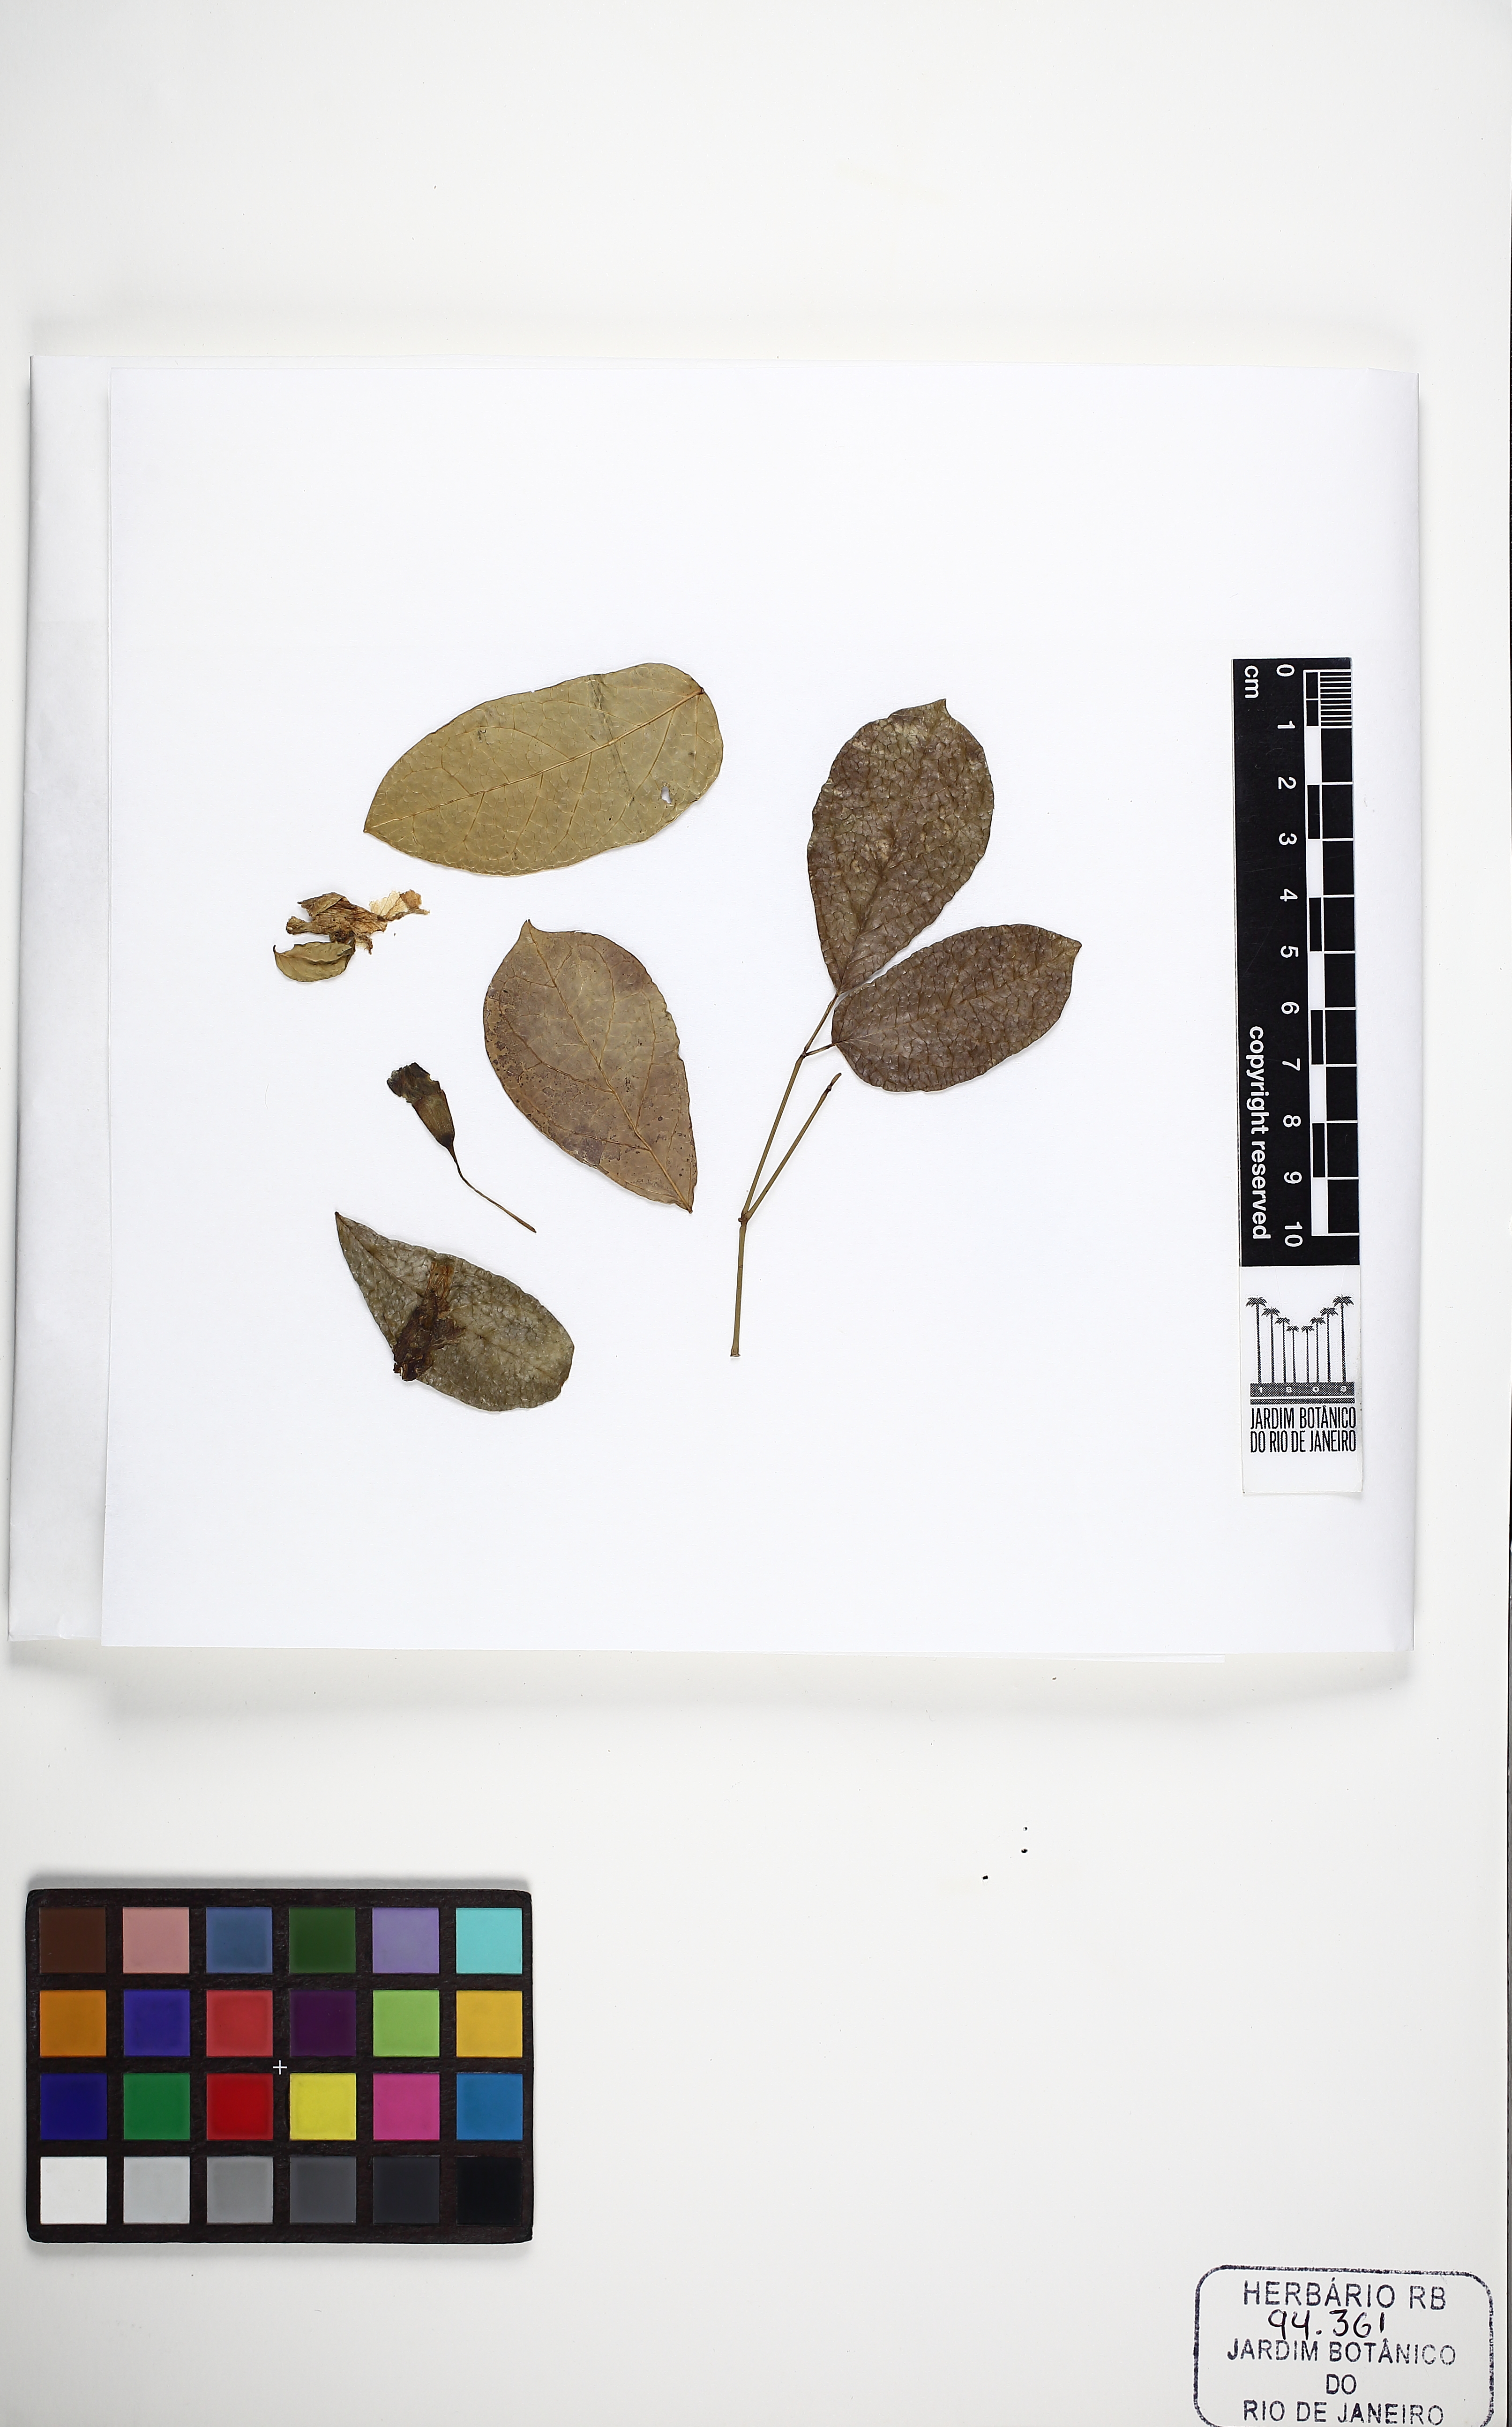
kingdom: Plantae
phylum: Tracheophyta
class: Magnoliopsida
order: Lamiales
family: Bignoniaceae
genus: Adenocalymma
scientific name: Adenocalymma albiflorum
